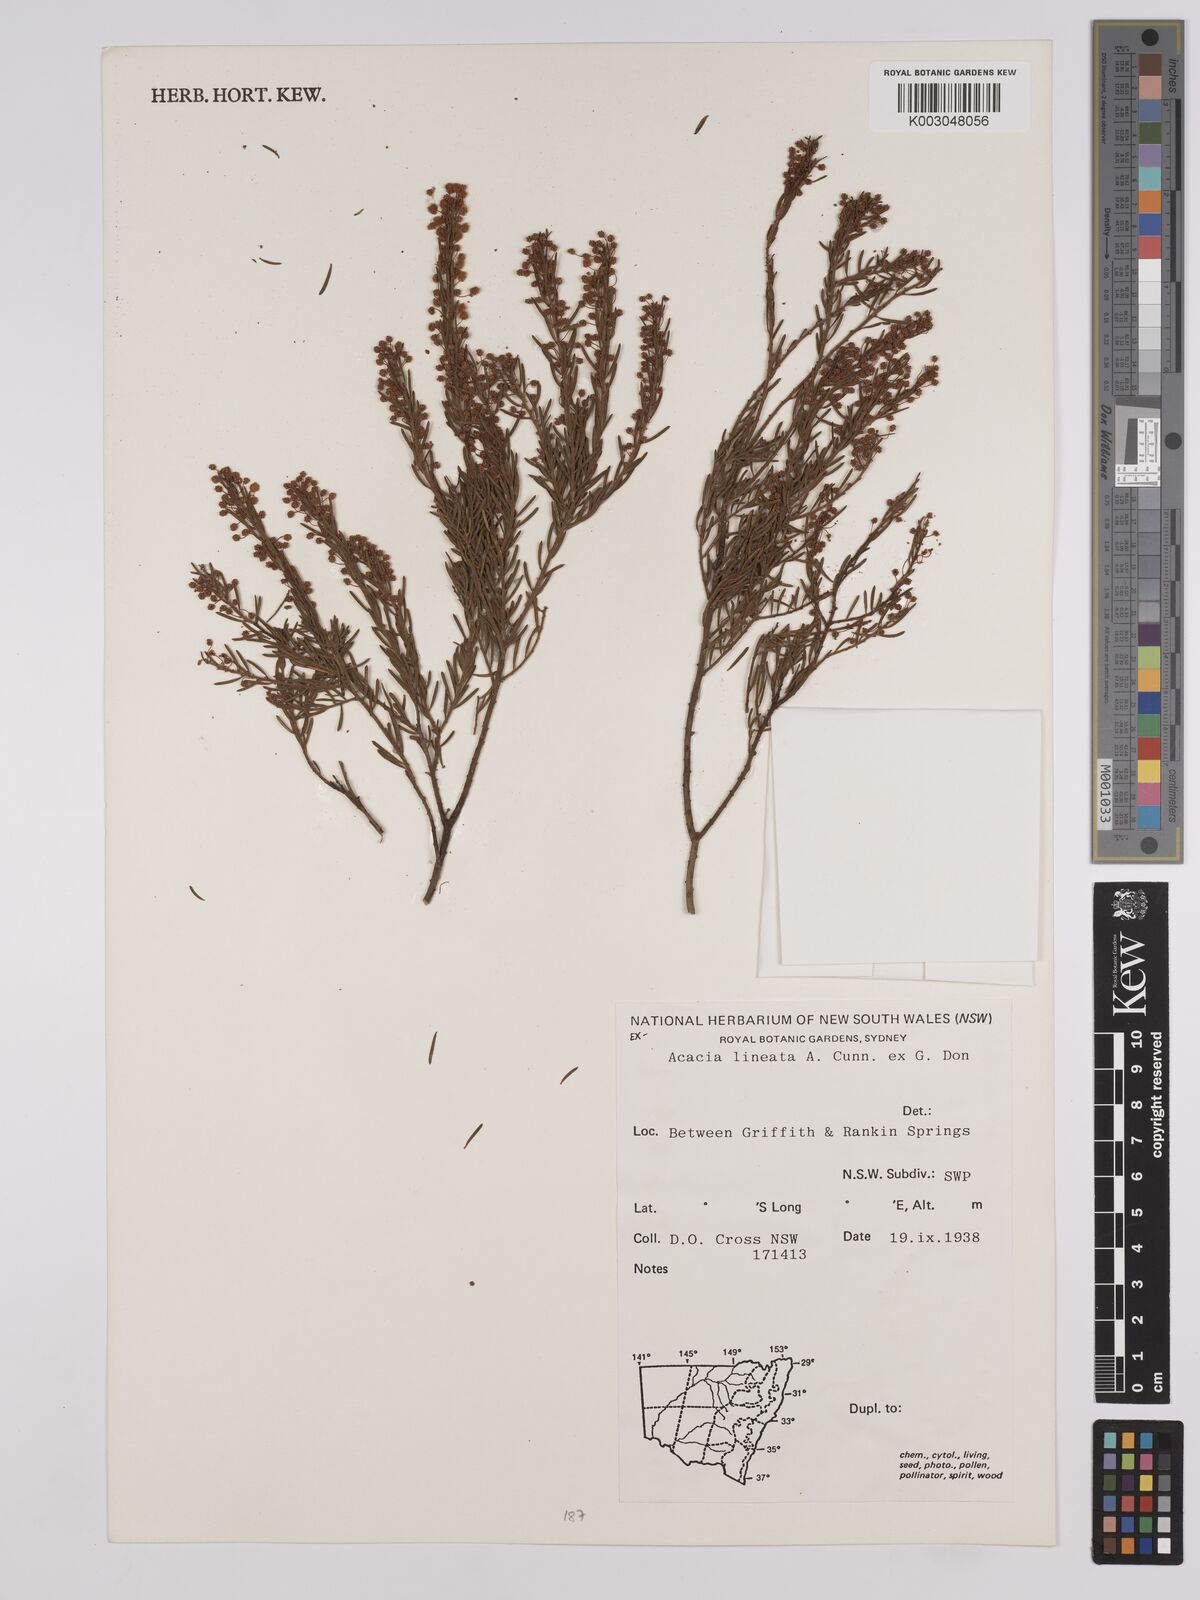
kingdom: Plantae
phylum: Tracheophyta
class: Magnoliopsida
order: Fabales
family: Fabaceae
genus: Acacia
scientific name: Acacia lineata
